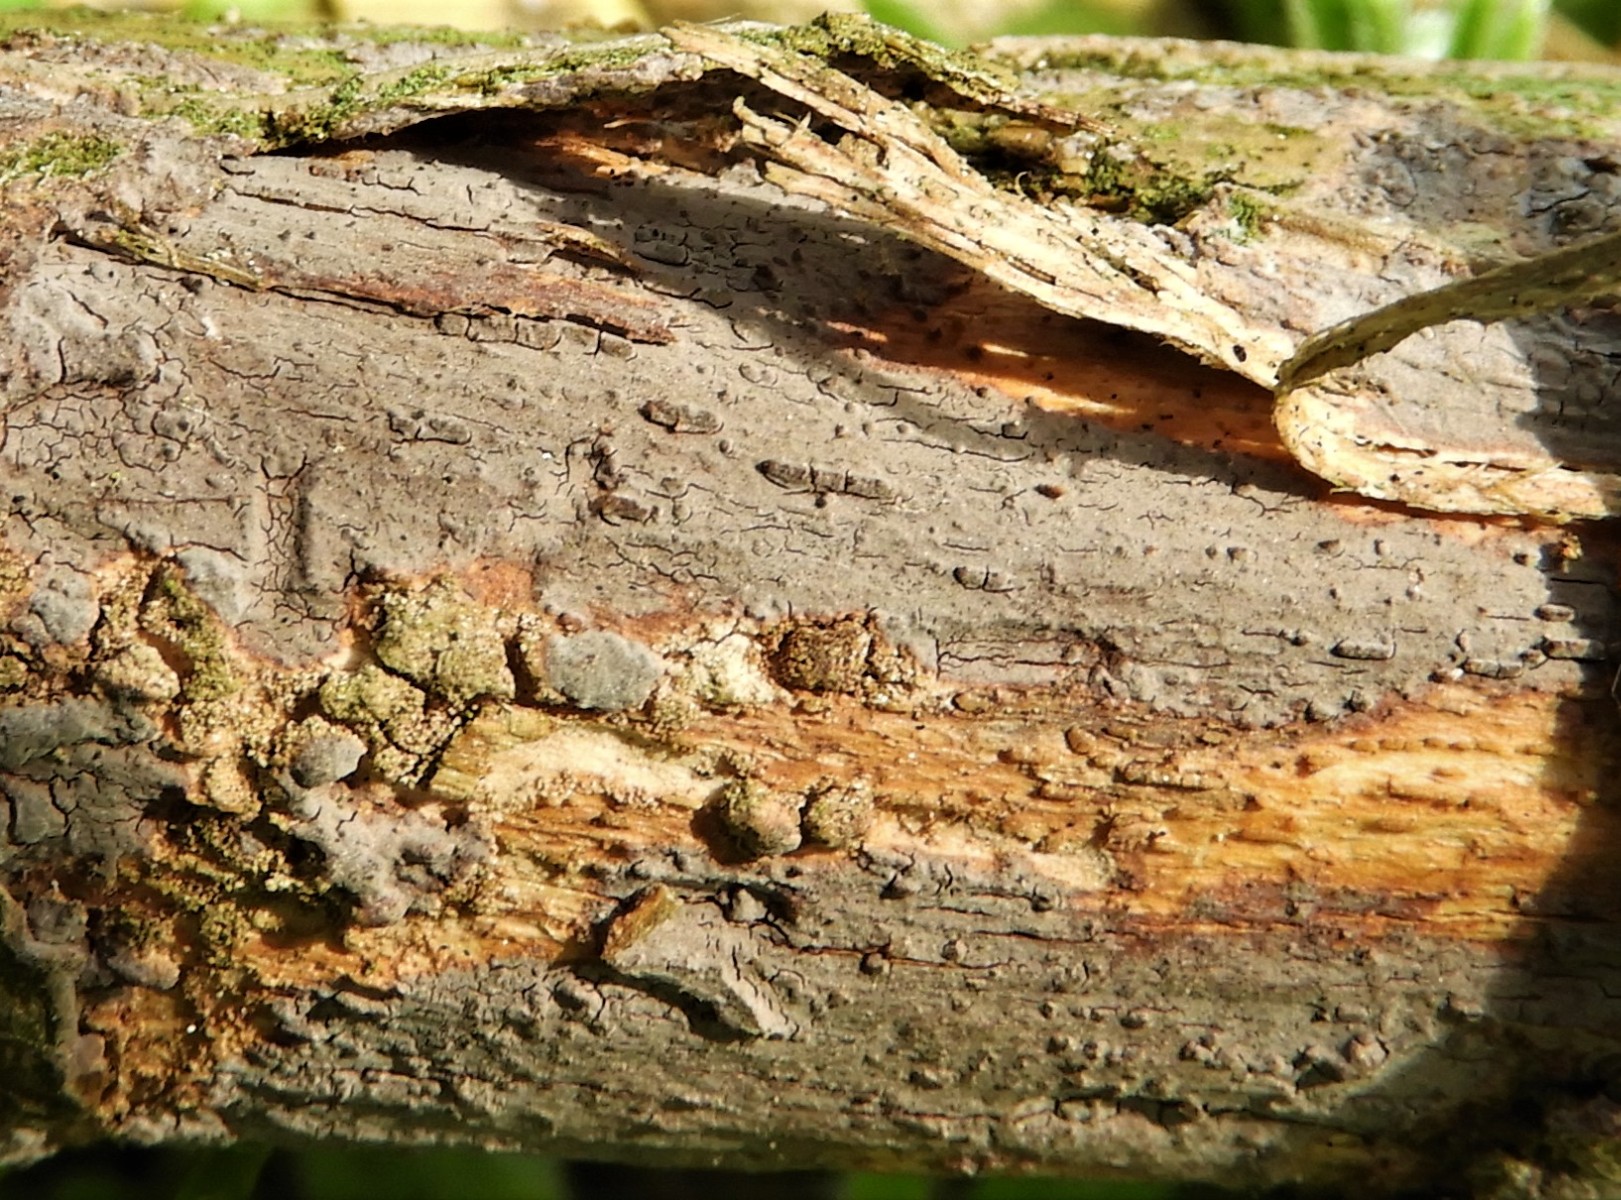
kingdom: Fungi
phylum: Basidiomycota
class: Agaricomycetes
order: Russulales
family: Peniophoraceae
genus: Peniophora
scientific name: Peniophora
